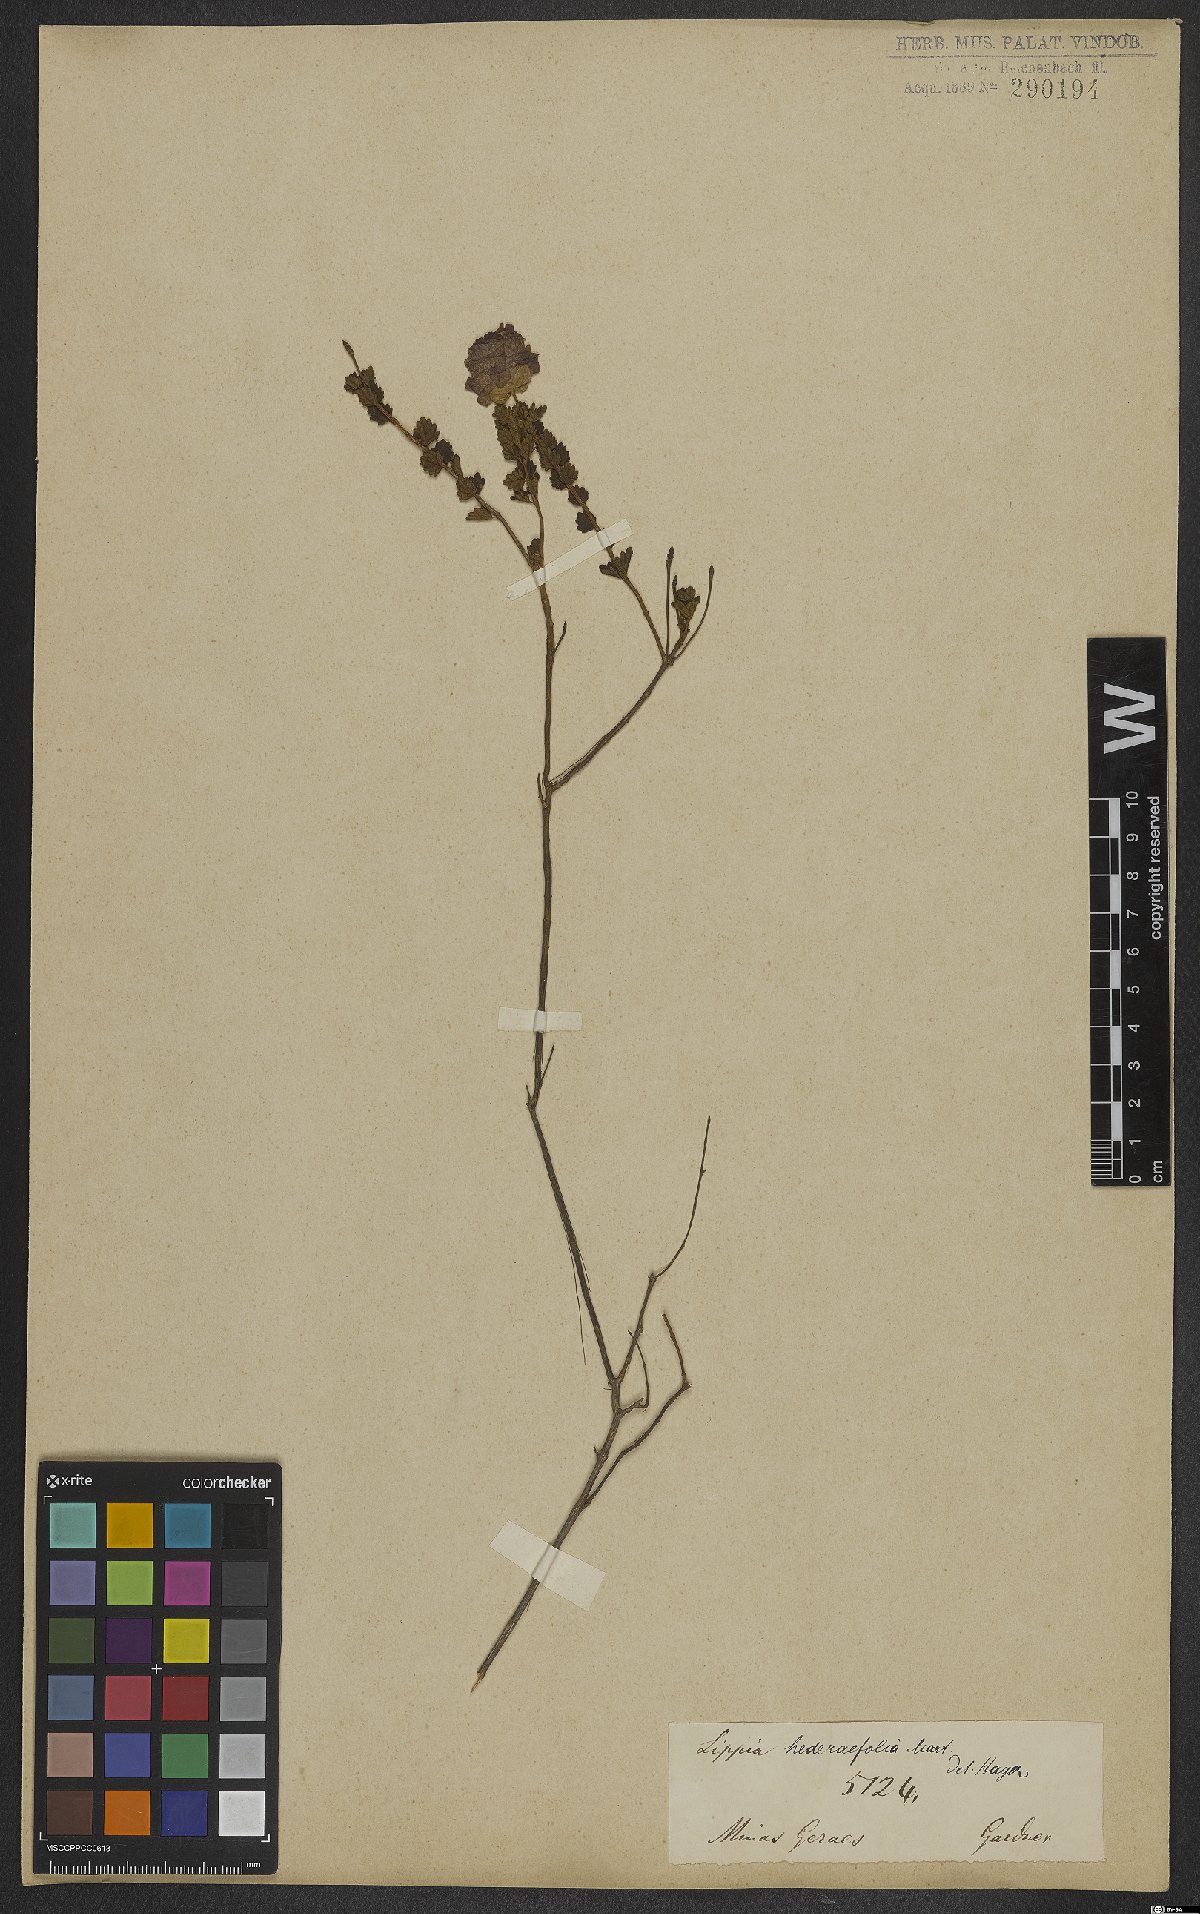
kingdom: Plantae
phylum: Tracheophyta
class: Magnoliopsida
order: Lamiales
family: Verbenaceae
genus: Lippia
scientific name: Lippia hederifolia
